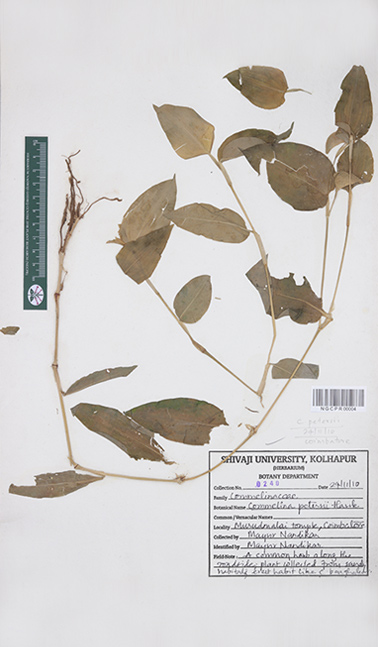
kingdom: Plantae
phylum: Tracheophyta
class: Liliopsida
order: Commelinales
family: Commelinaceae
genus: Commelina
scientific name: Commelina petersii
